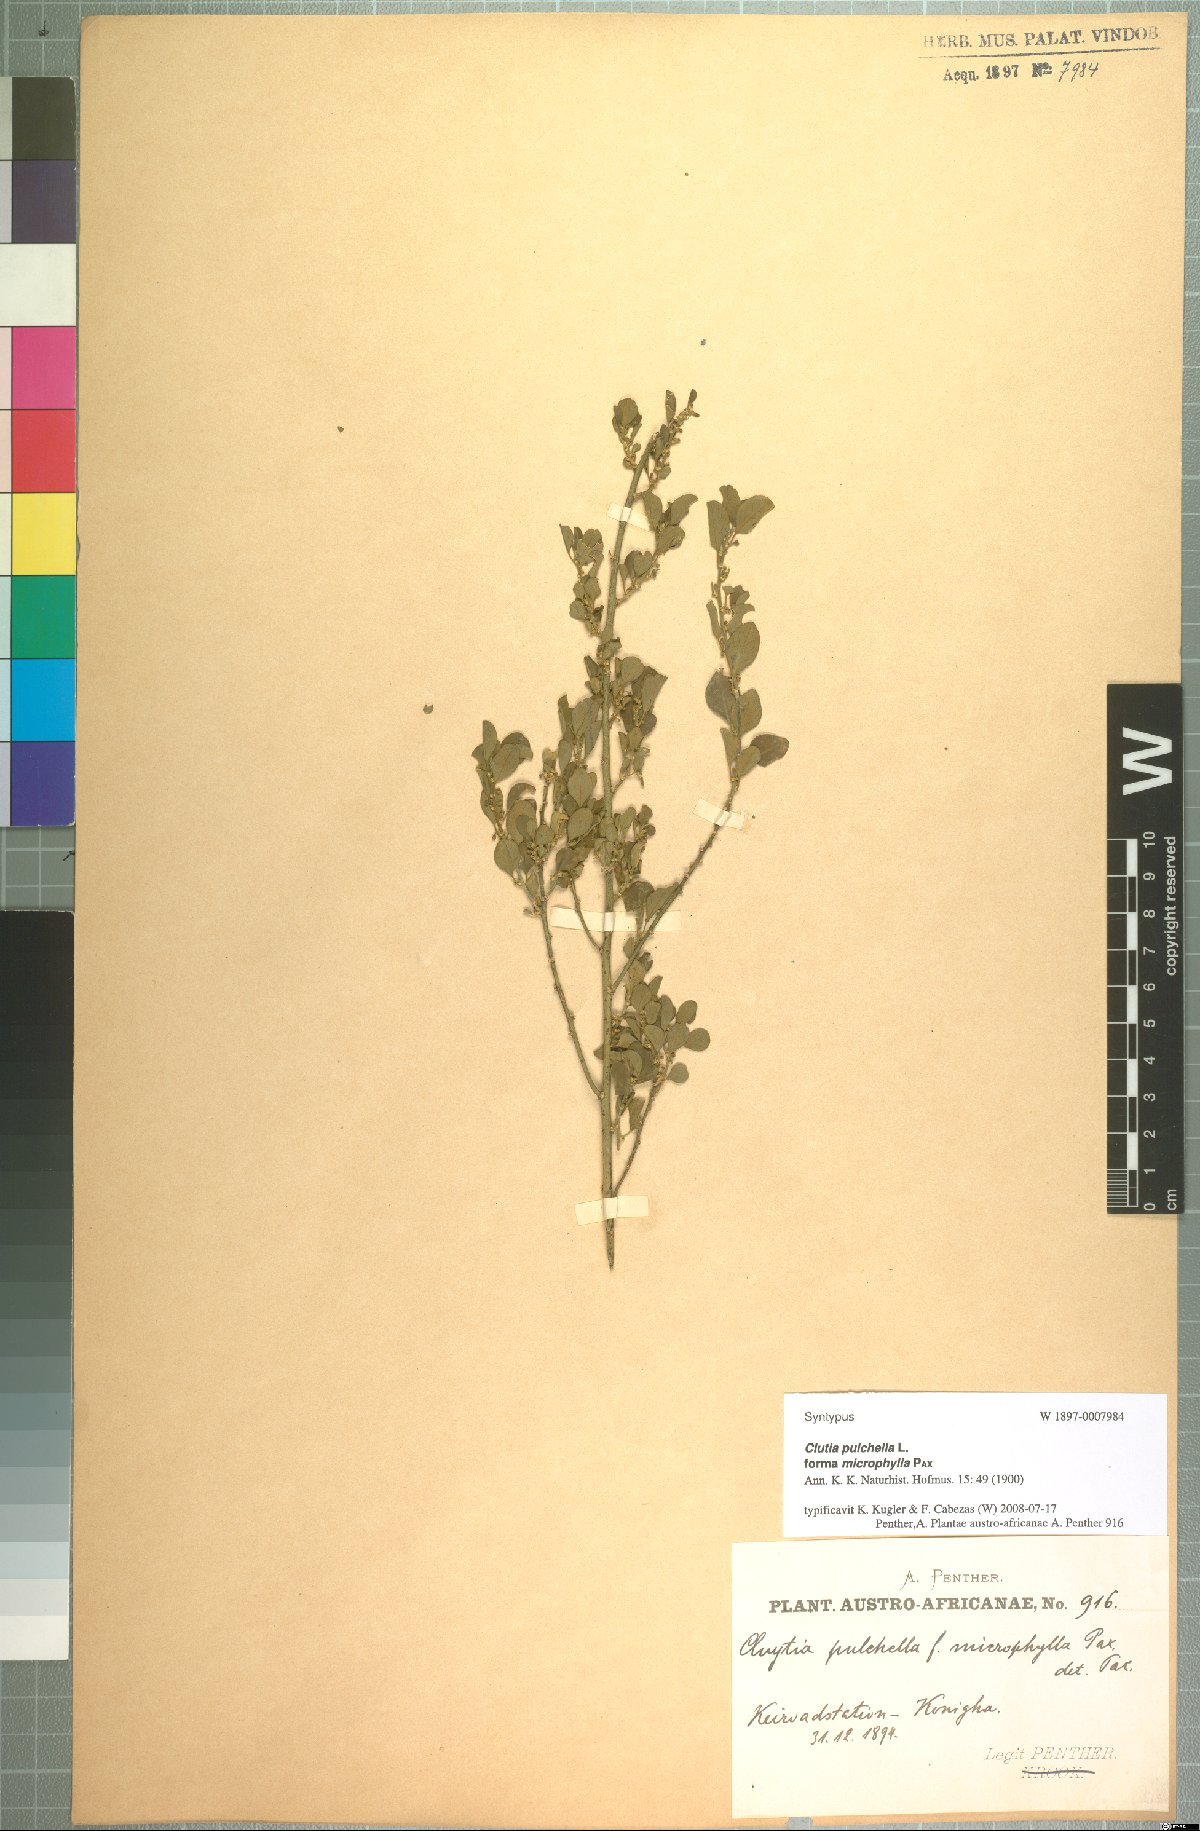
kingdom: Plantae
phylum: Tracheophyta
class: Magnoliopsida
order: Malpighiales
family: Peraceae
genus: Clutia
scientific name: Clutia pulchella
